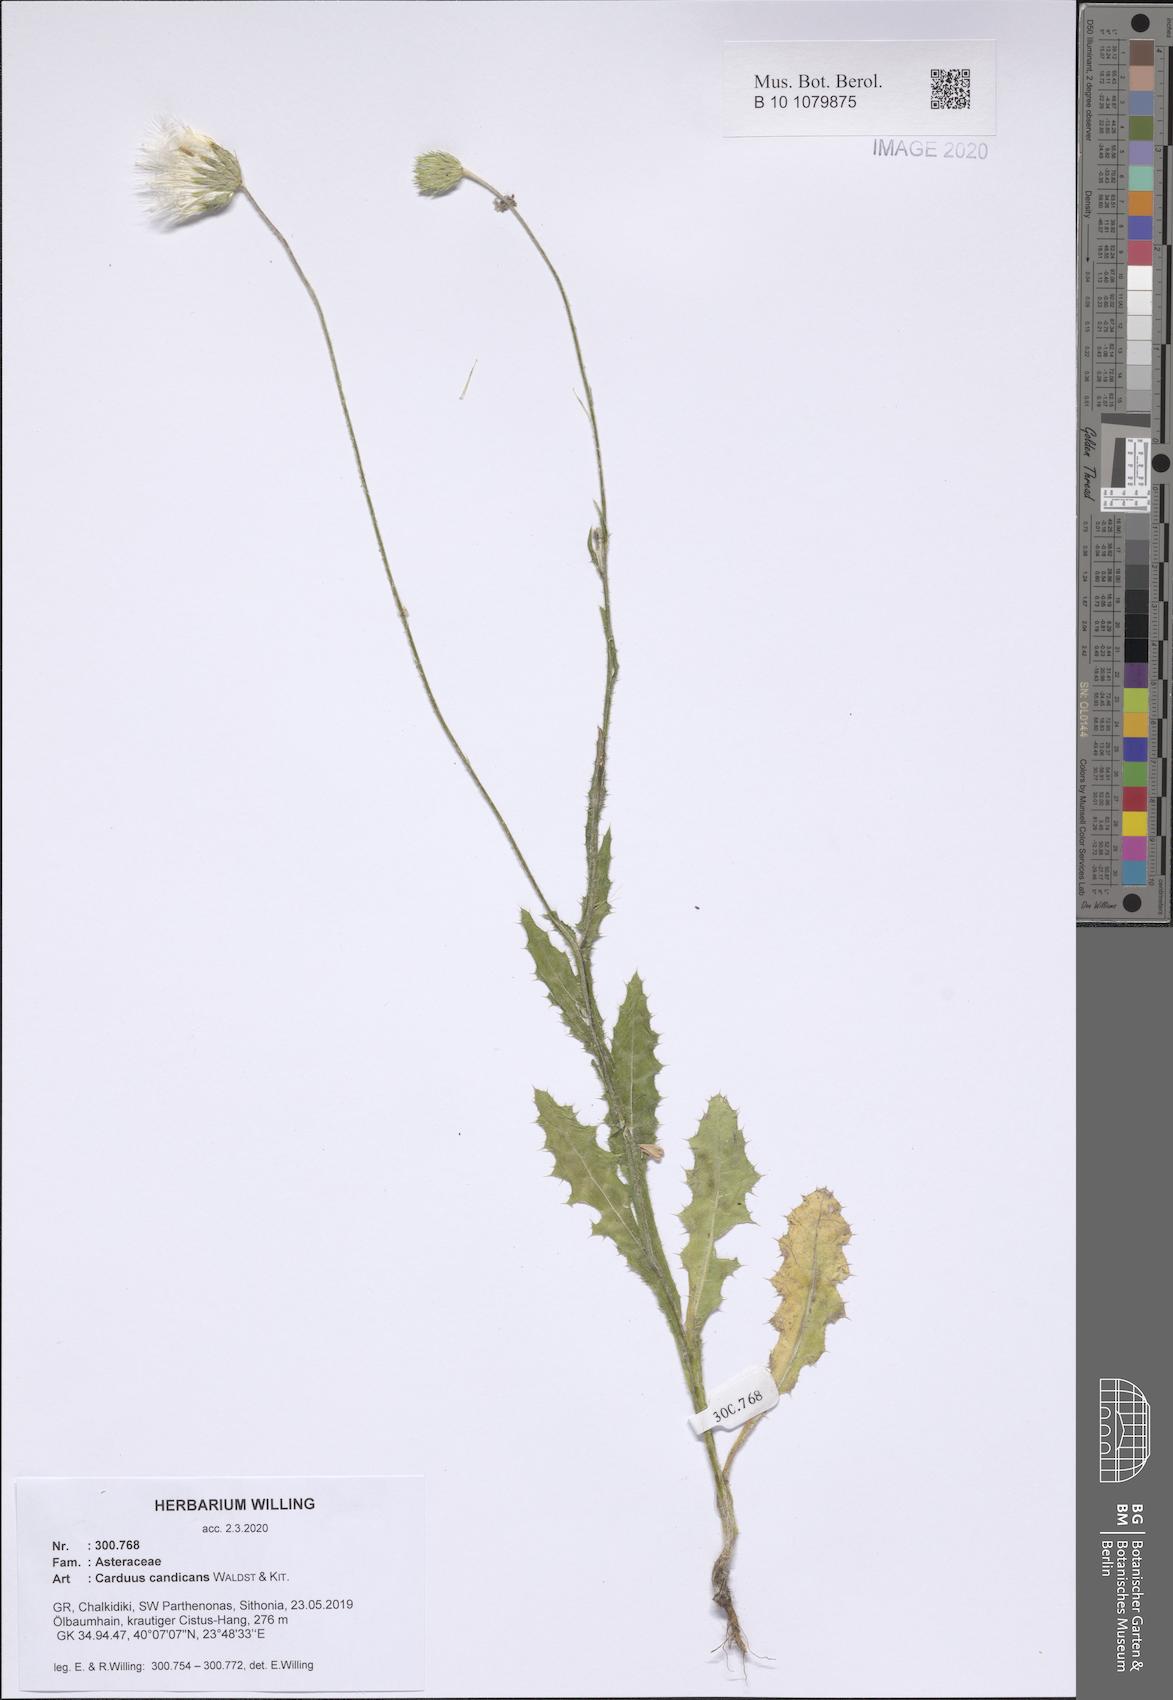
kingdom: Plantae
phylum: Tracheophyta
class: Magnoliopsida
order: Asterales
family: Asteraceae
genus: Carduus
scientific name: Carduus candicans
